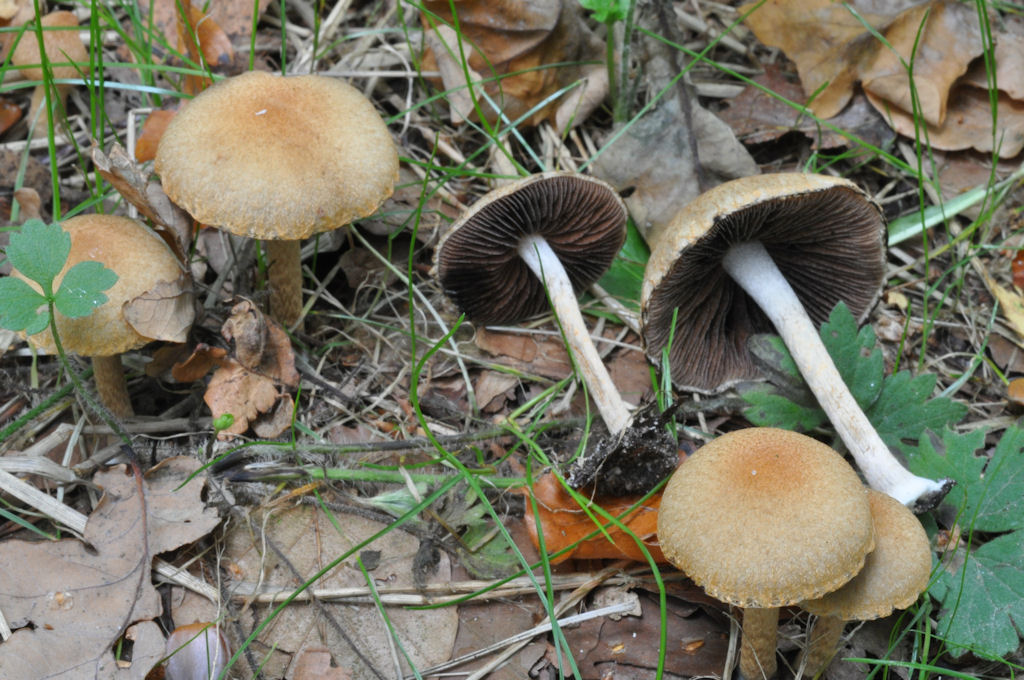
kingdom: Fungi
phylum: Basidiomycota
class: Agaricomycetes
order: Agaricales
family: Psathyrellaceae
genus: Lacrymaria
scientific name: Lacrymaria lacrymabunda
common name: grædende mørkhat
